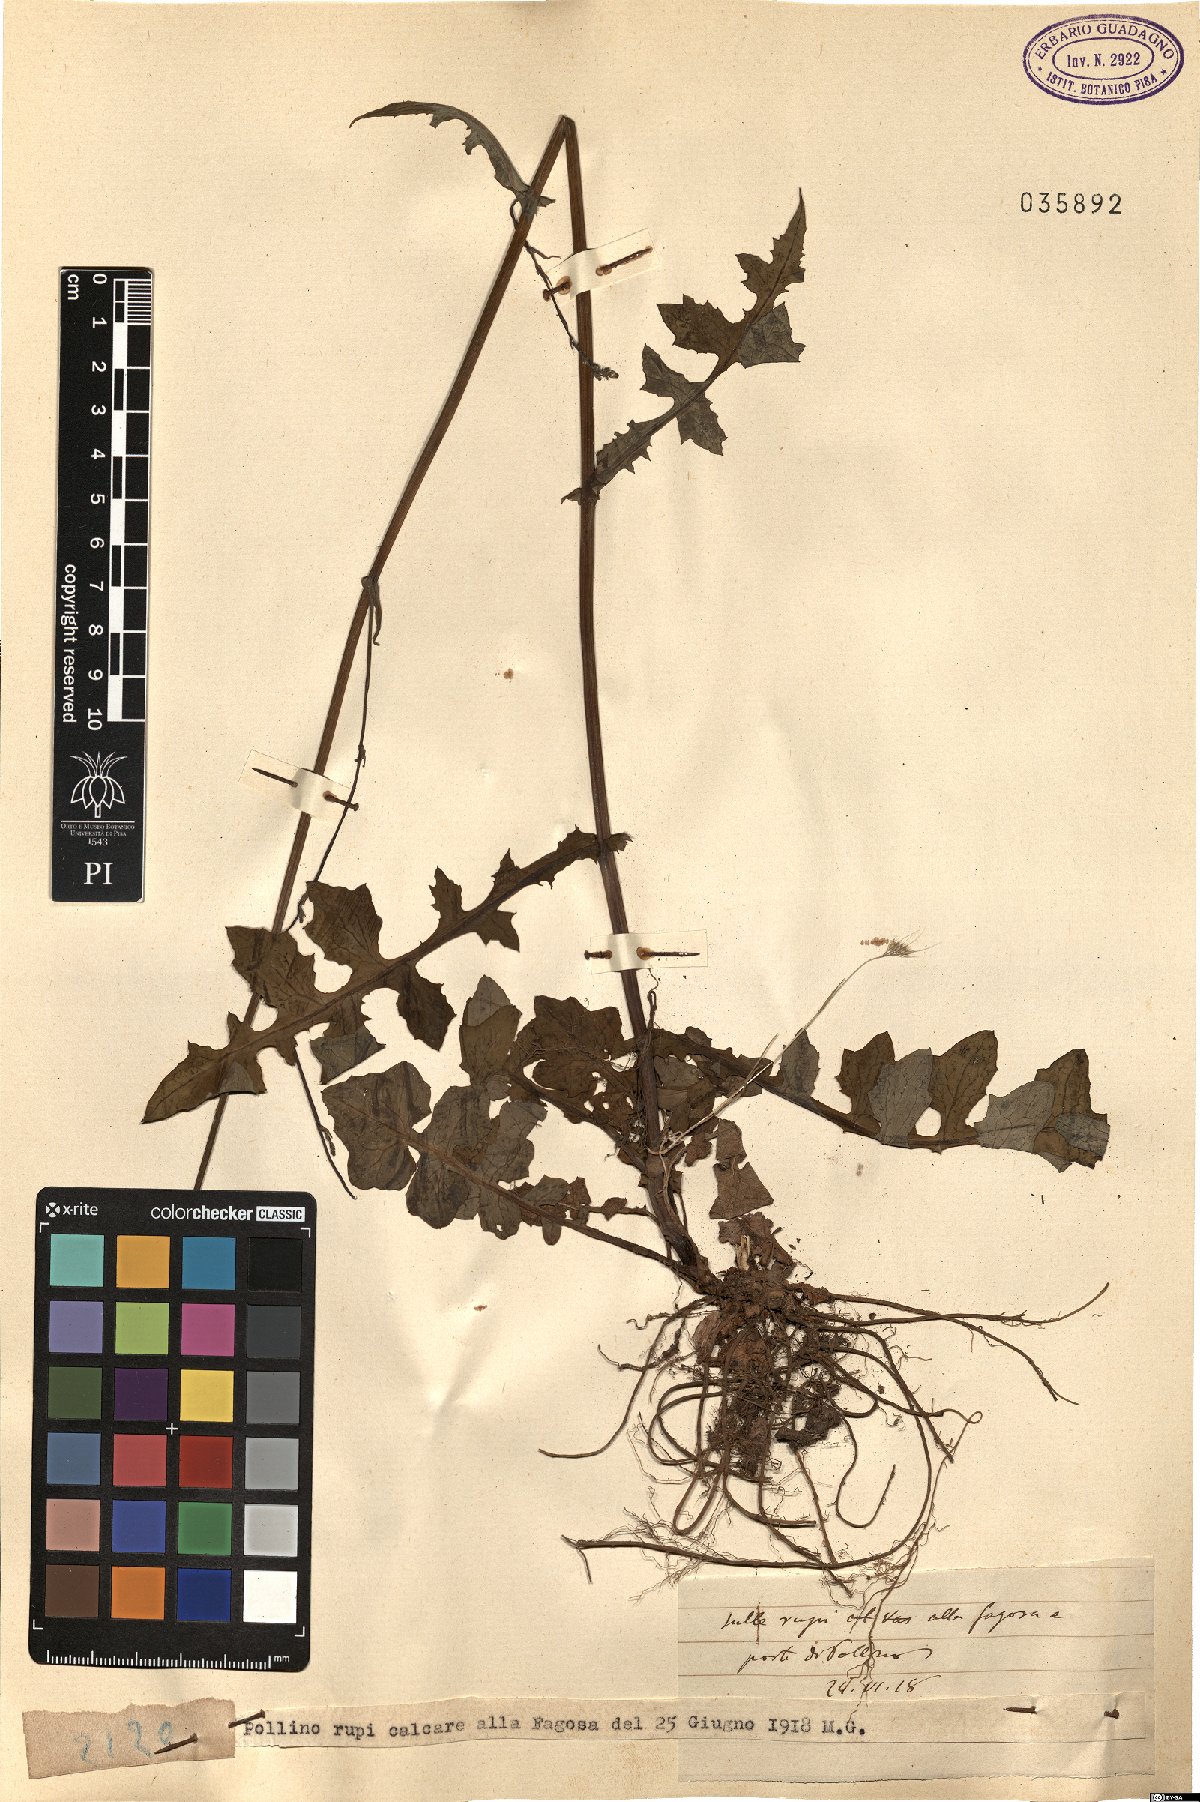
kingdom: Plantae
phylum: Tracheophyta
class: Magnoliopsida
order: Asterales
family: Asteraceae
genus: Lactuca
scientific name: Lactuca
